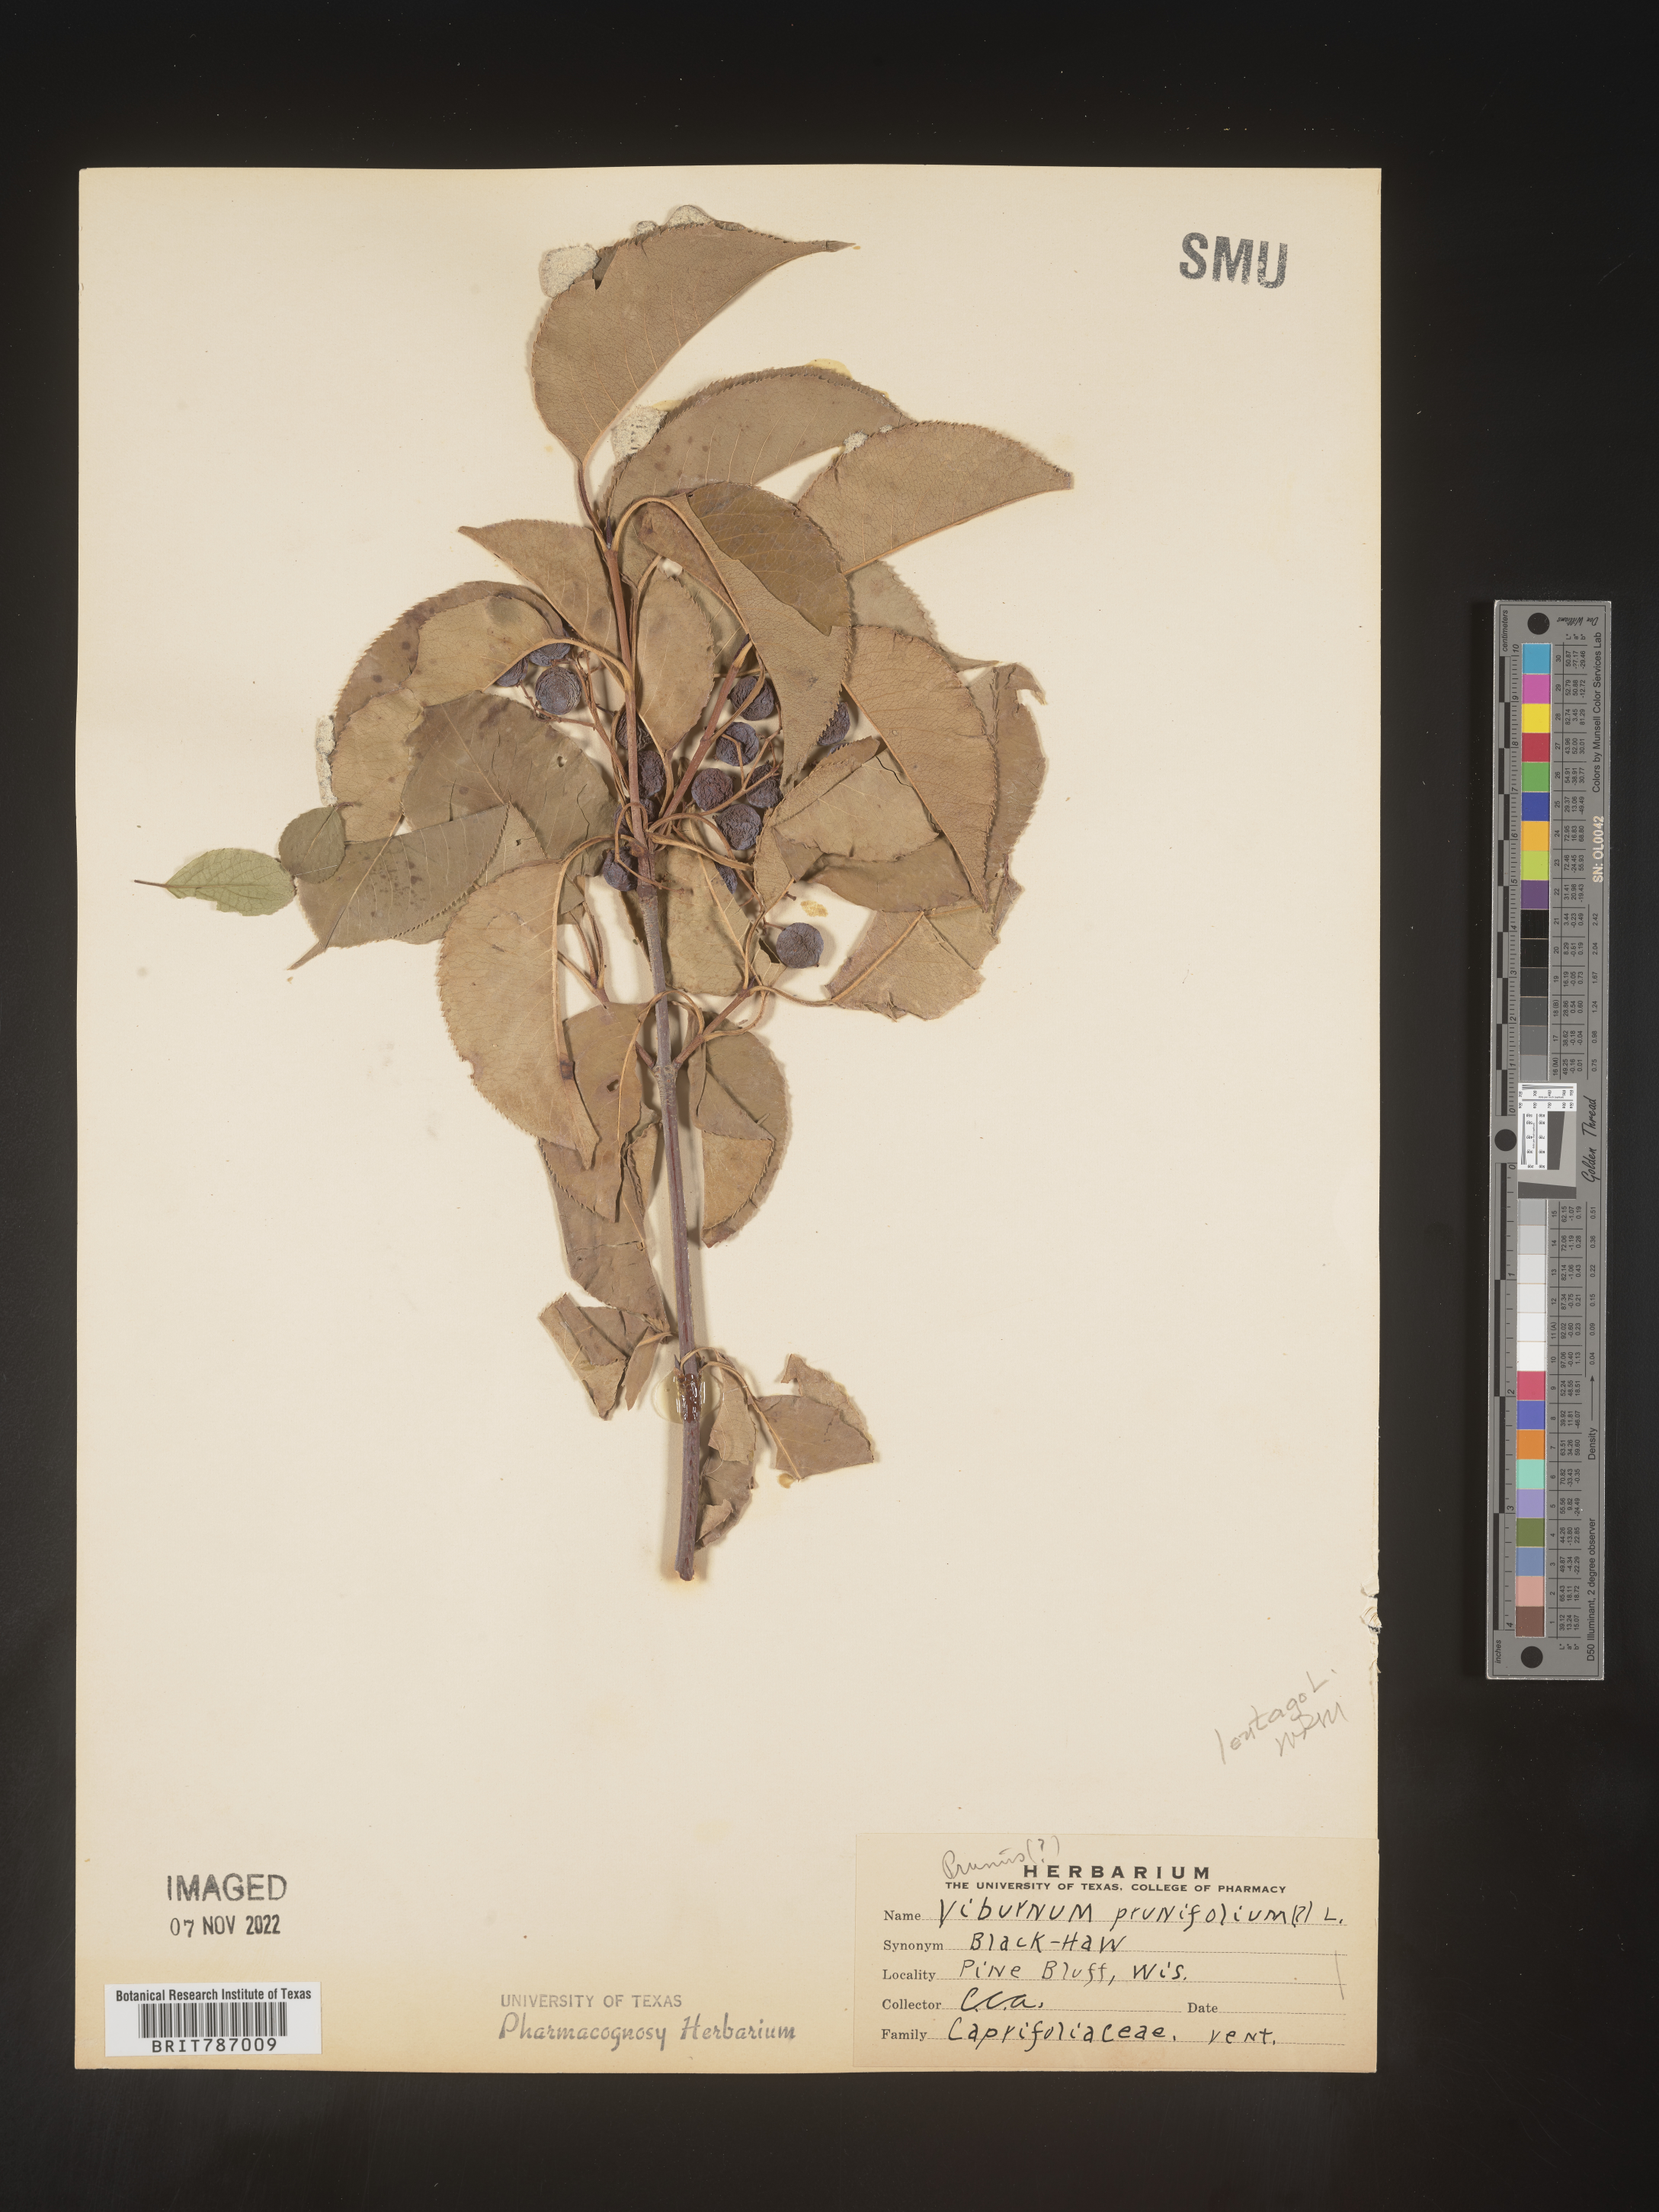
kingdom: Plantae
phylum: Tracheophyta
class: Magnoliopsida
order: Dipsacales
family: Viburnaceae
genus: Viburnum
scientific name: Viburnum prunifolium
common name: Black haw
